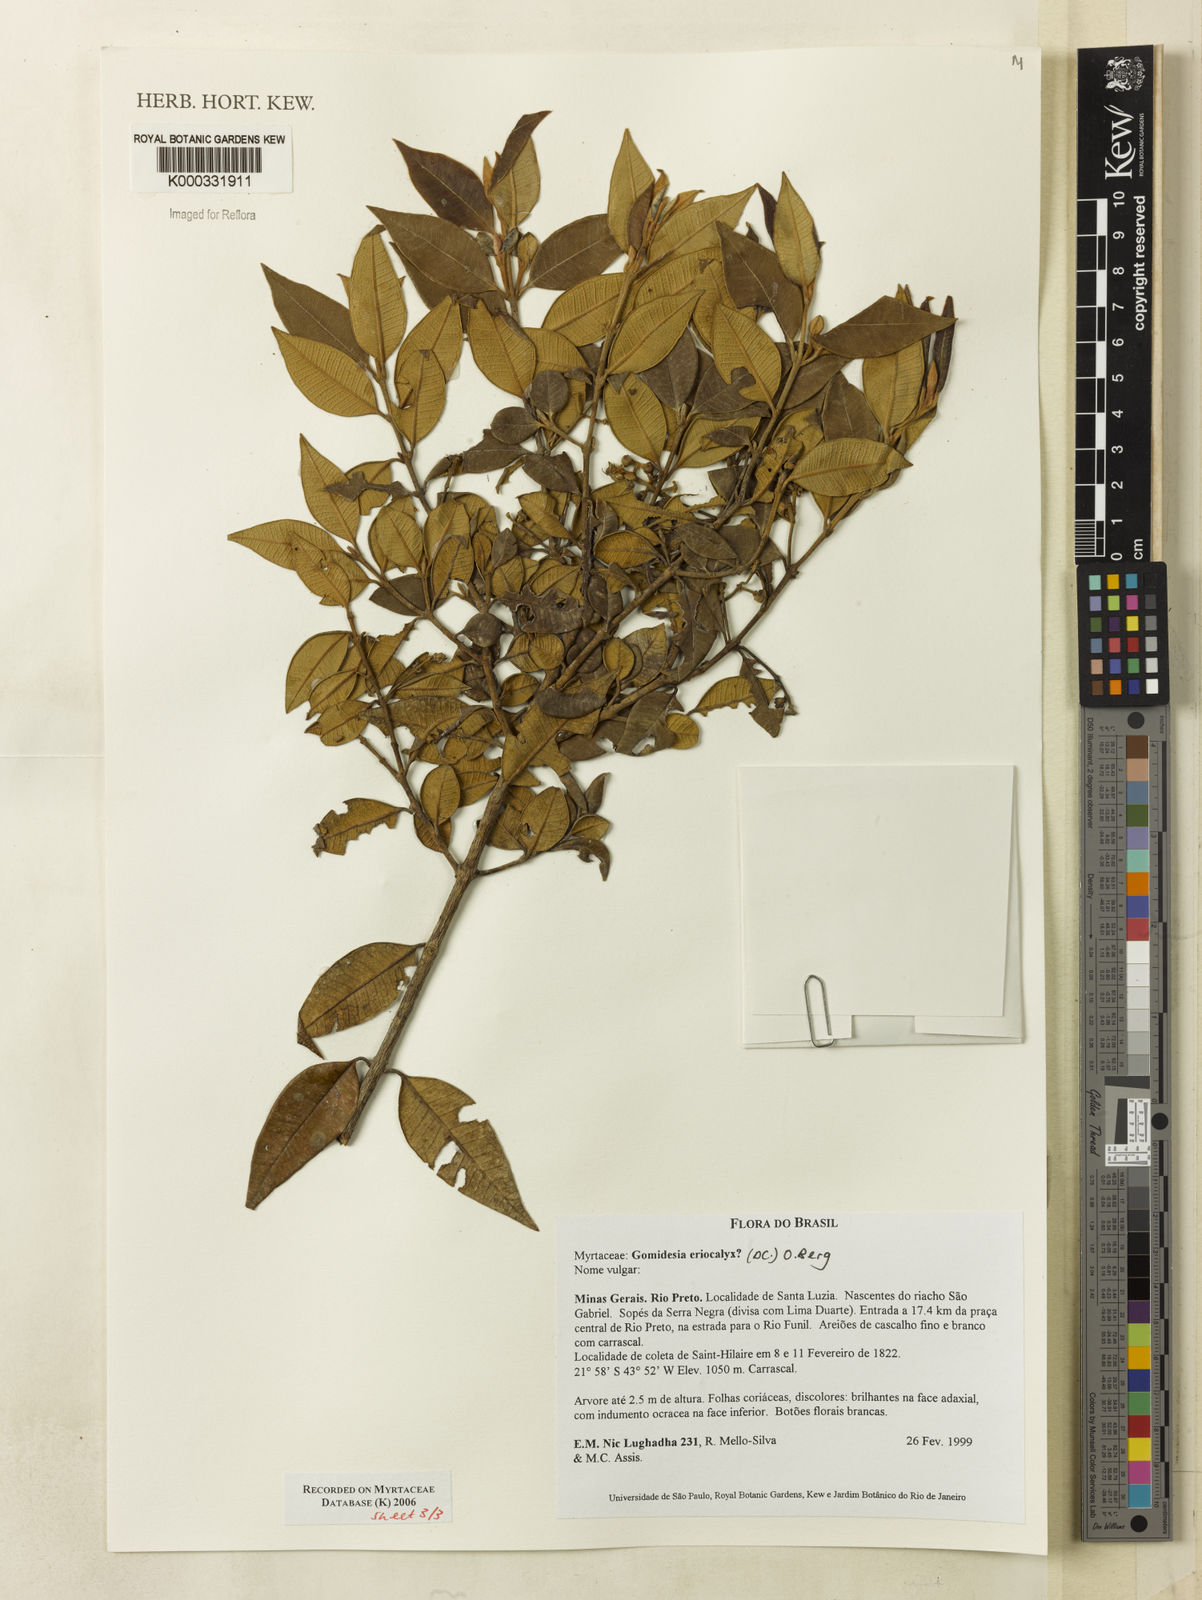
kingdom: Plantae
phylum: Tracheophyta
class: Magnoliopsida
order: Myrtales
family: Myrtaceae
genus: Myrcia
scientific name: Myrcia eriocalyx
